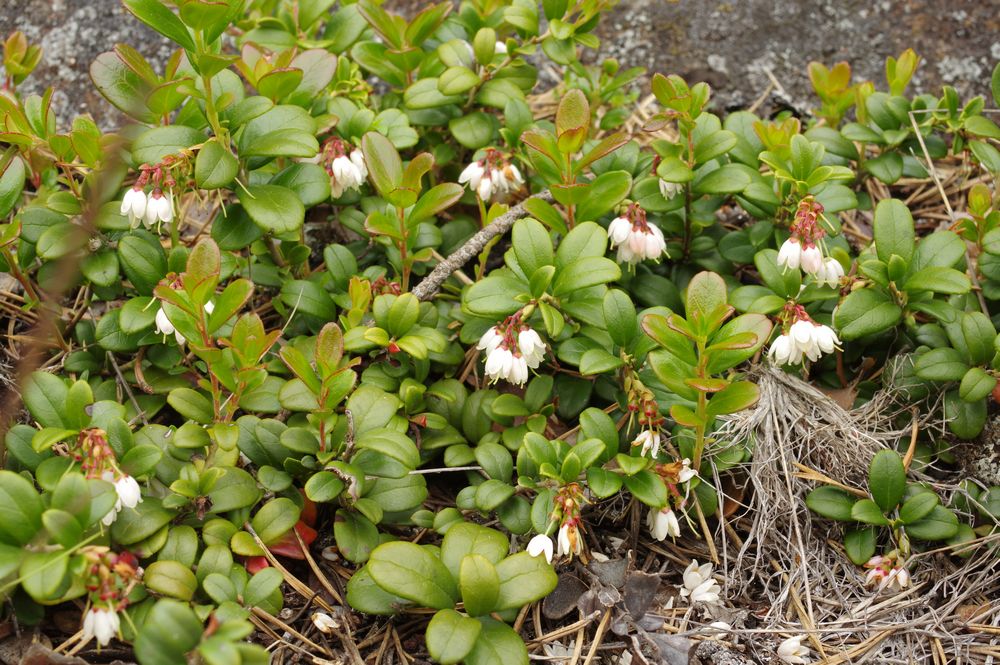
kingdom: Plantae
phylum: Tracheophyta
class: Magnoliopsida
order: Ericales
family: Ericaceae
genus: Vaccinium
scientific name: Vaccinium vitis-idaea
